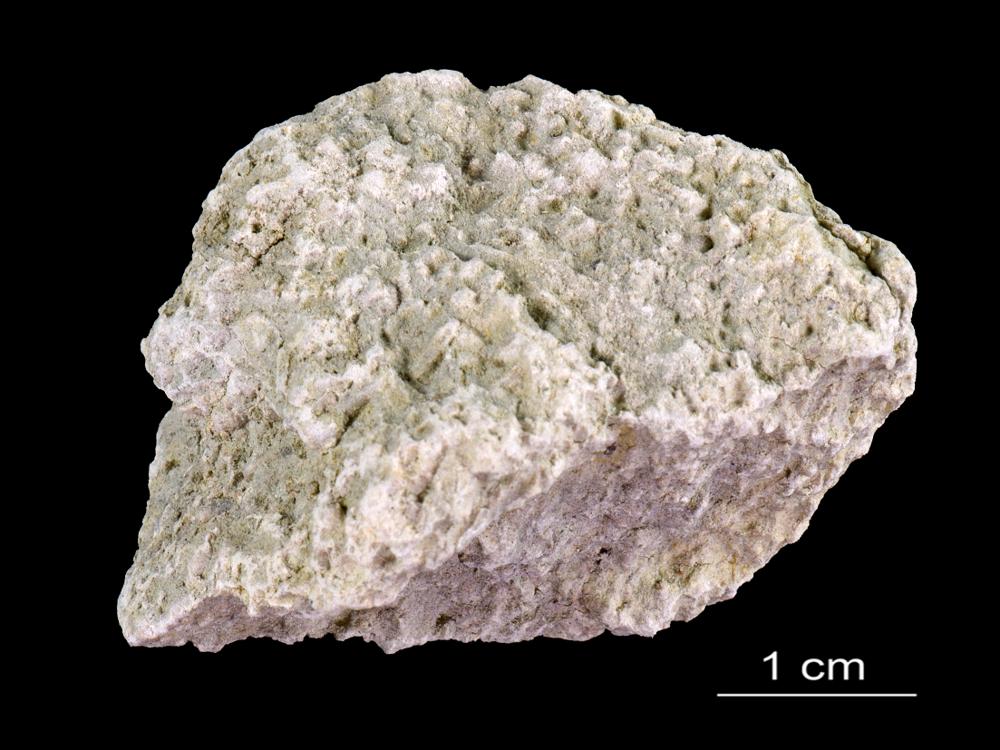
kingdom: Animalia
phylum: Annelida
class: Polychaeta
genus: Volborthella
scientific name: Volborthella tenuis
